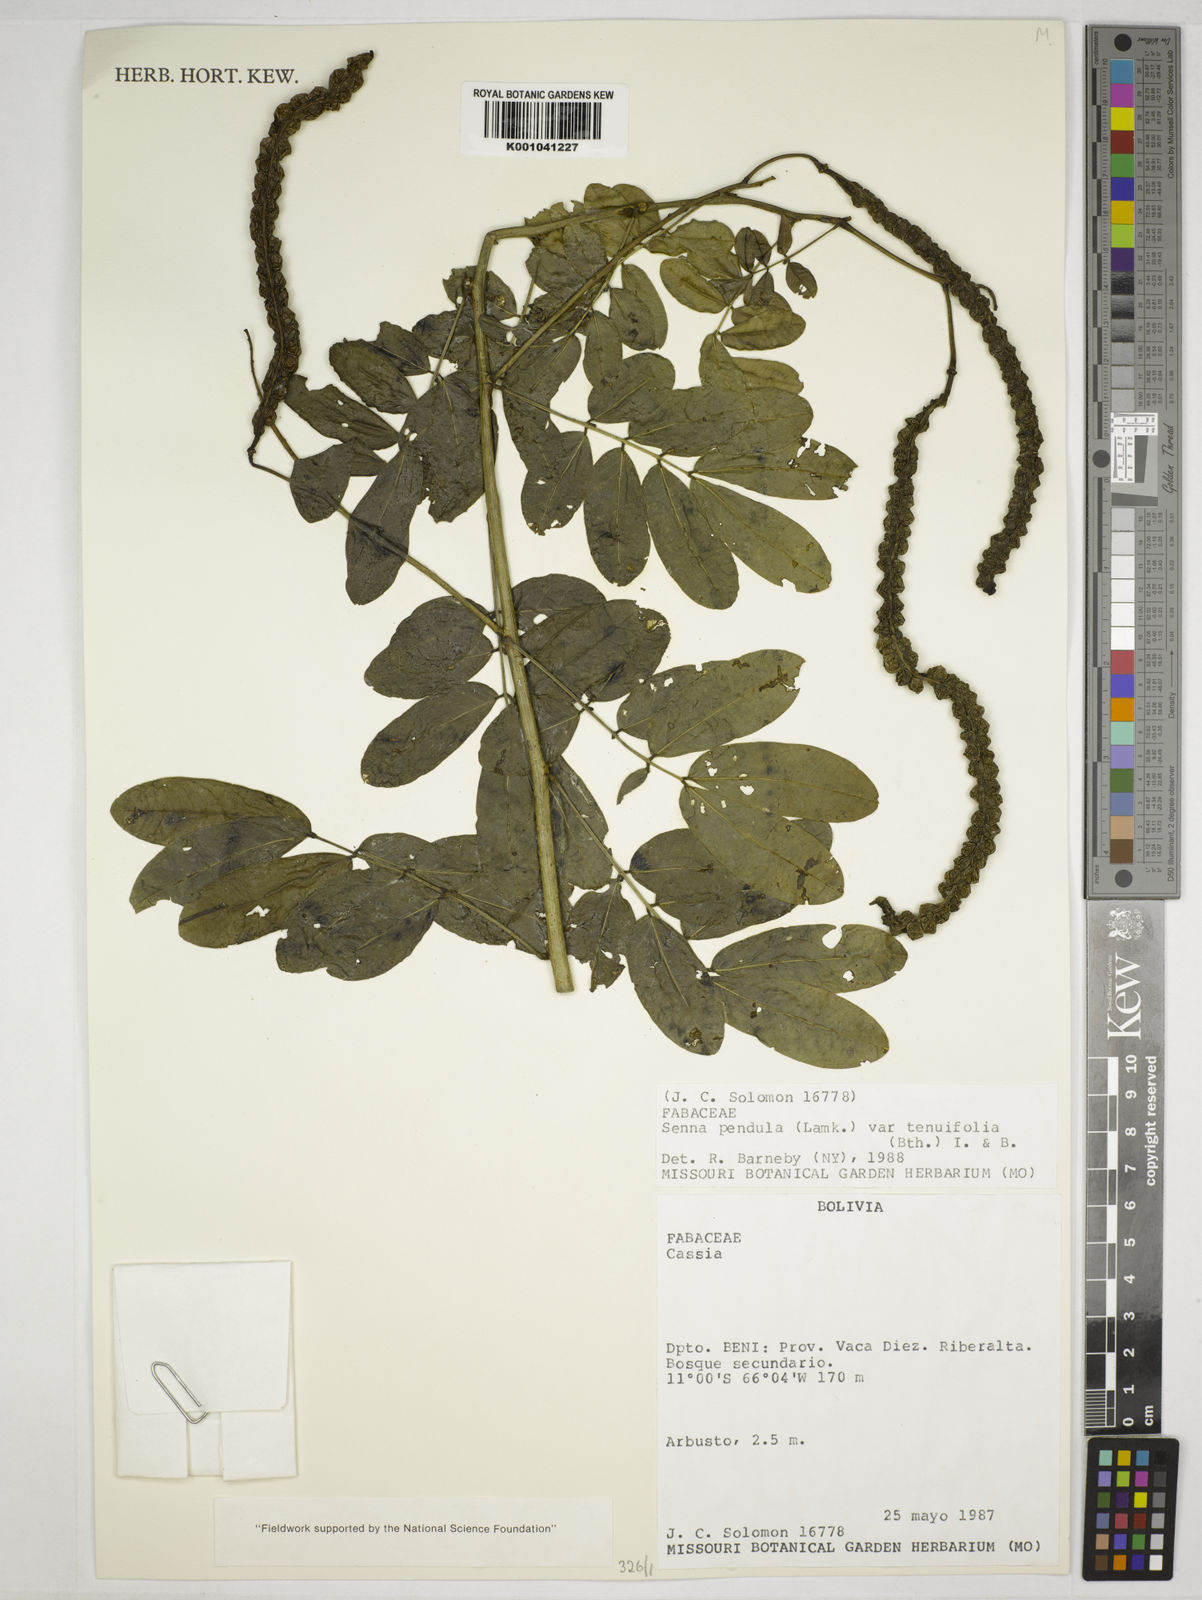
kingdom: Plantae
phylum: Tracheophyta
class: Magnoliopsida
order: Fabales
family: Fabaceae
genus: Senna
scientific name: Senna pendula
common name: Easter cassia
